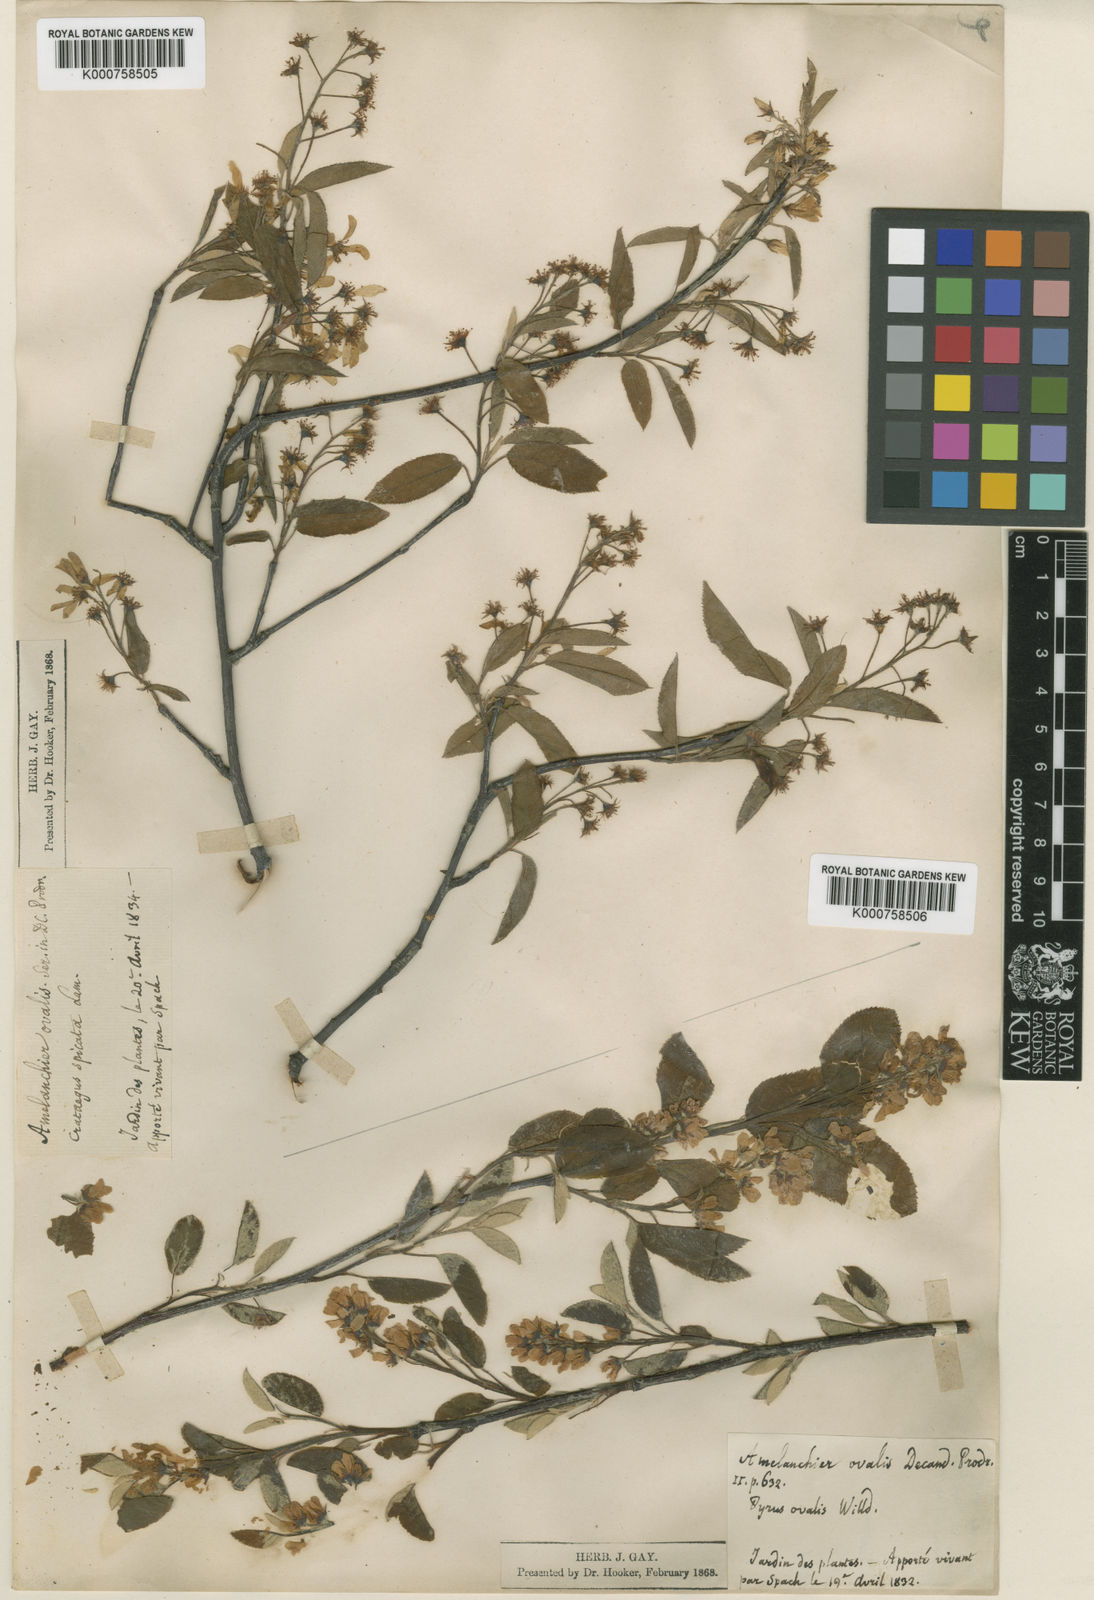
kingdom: Plantae
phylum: Tracheophyta
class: Magnoliopsida
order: Rosales
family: Rosaceae
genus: Amelanchier
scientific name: Amelanchier humilis
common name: Low juneberry
